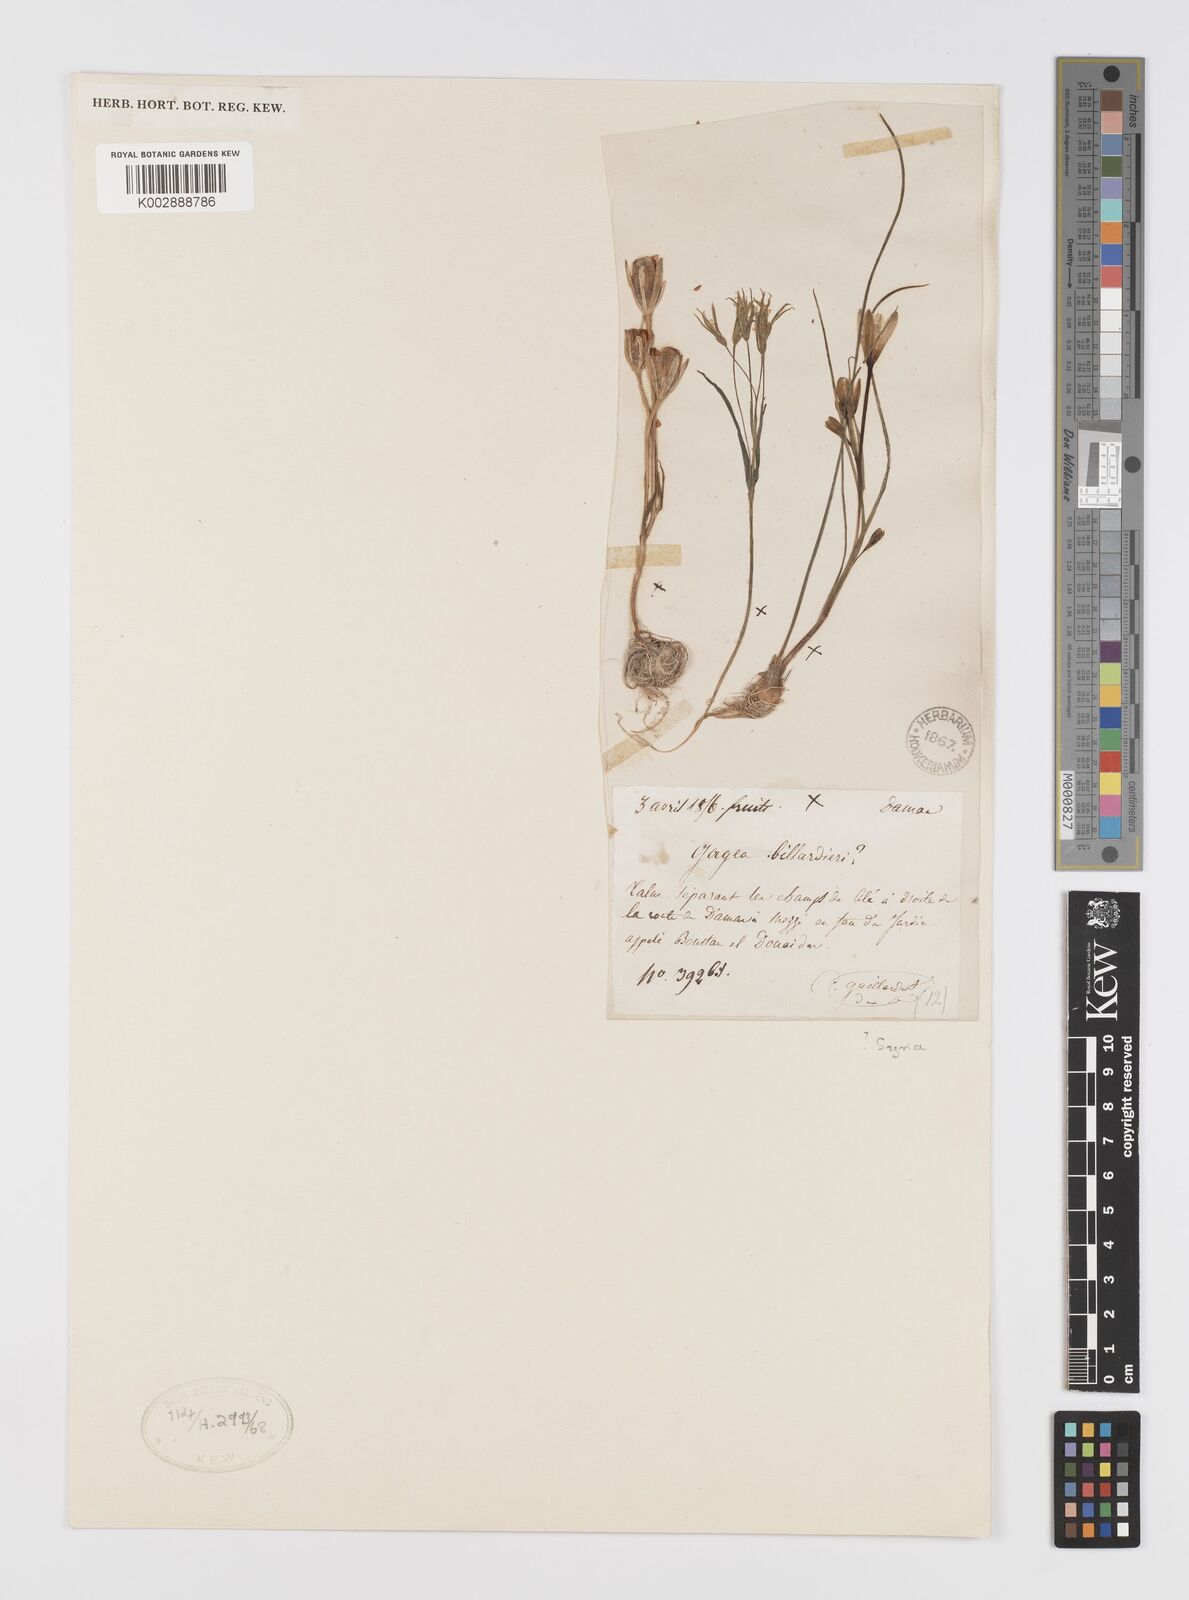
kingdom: Plantae
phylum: Tracheophyta
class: Liliopsida
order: Liliales
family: Liliaceae
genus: Gagea
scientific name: Gagea bohemica
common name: Early star-of-bethlehem
